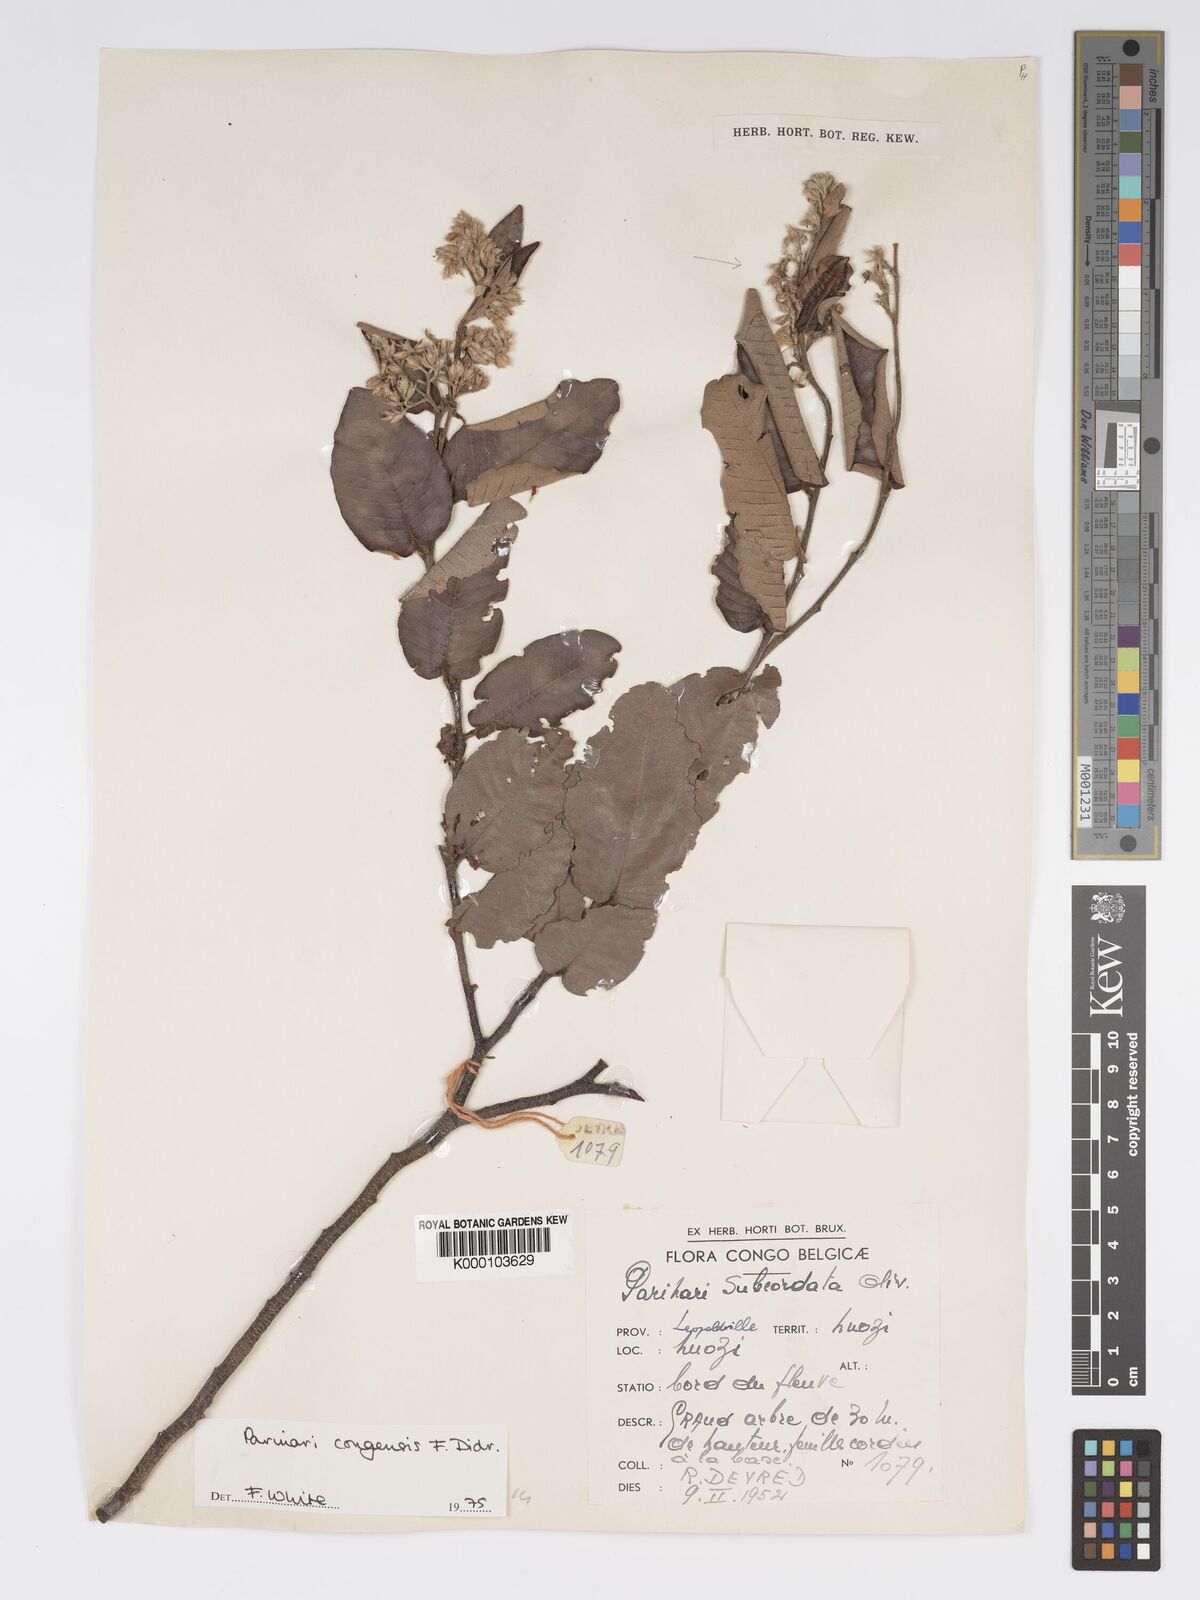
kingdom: Plantae
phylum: Tracheophyta
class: Magnoliopsida
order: Malpighiales
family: Chrysobalanaceae
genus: Parinari
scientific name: Parinari congensis
